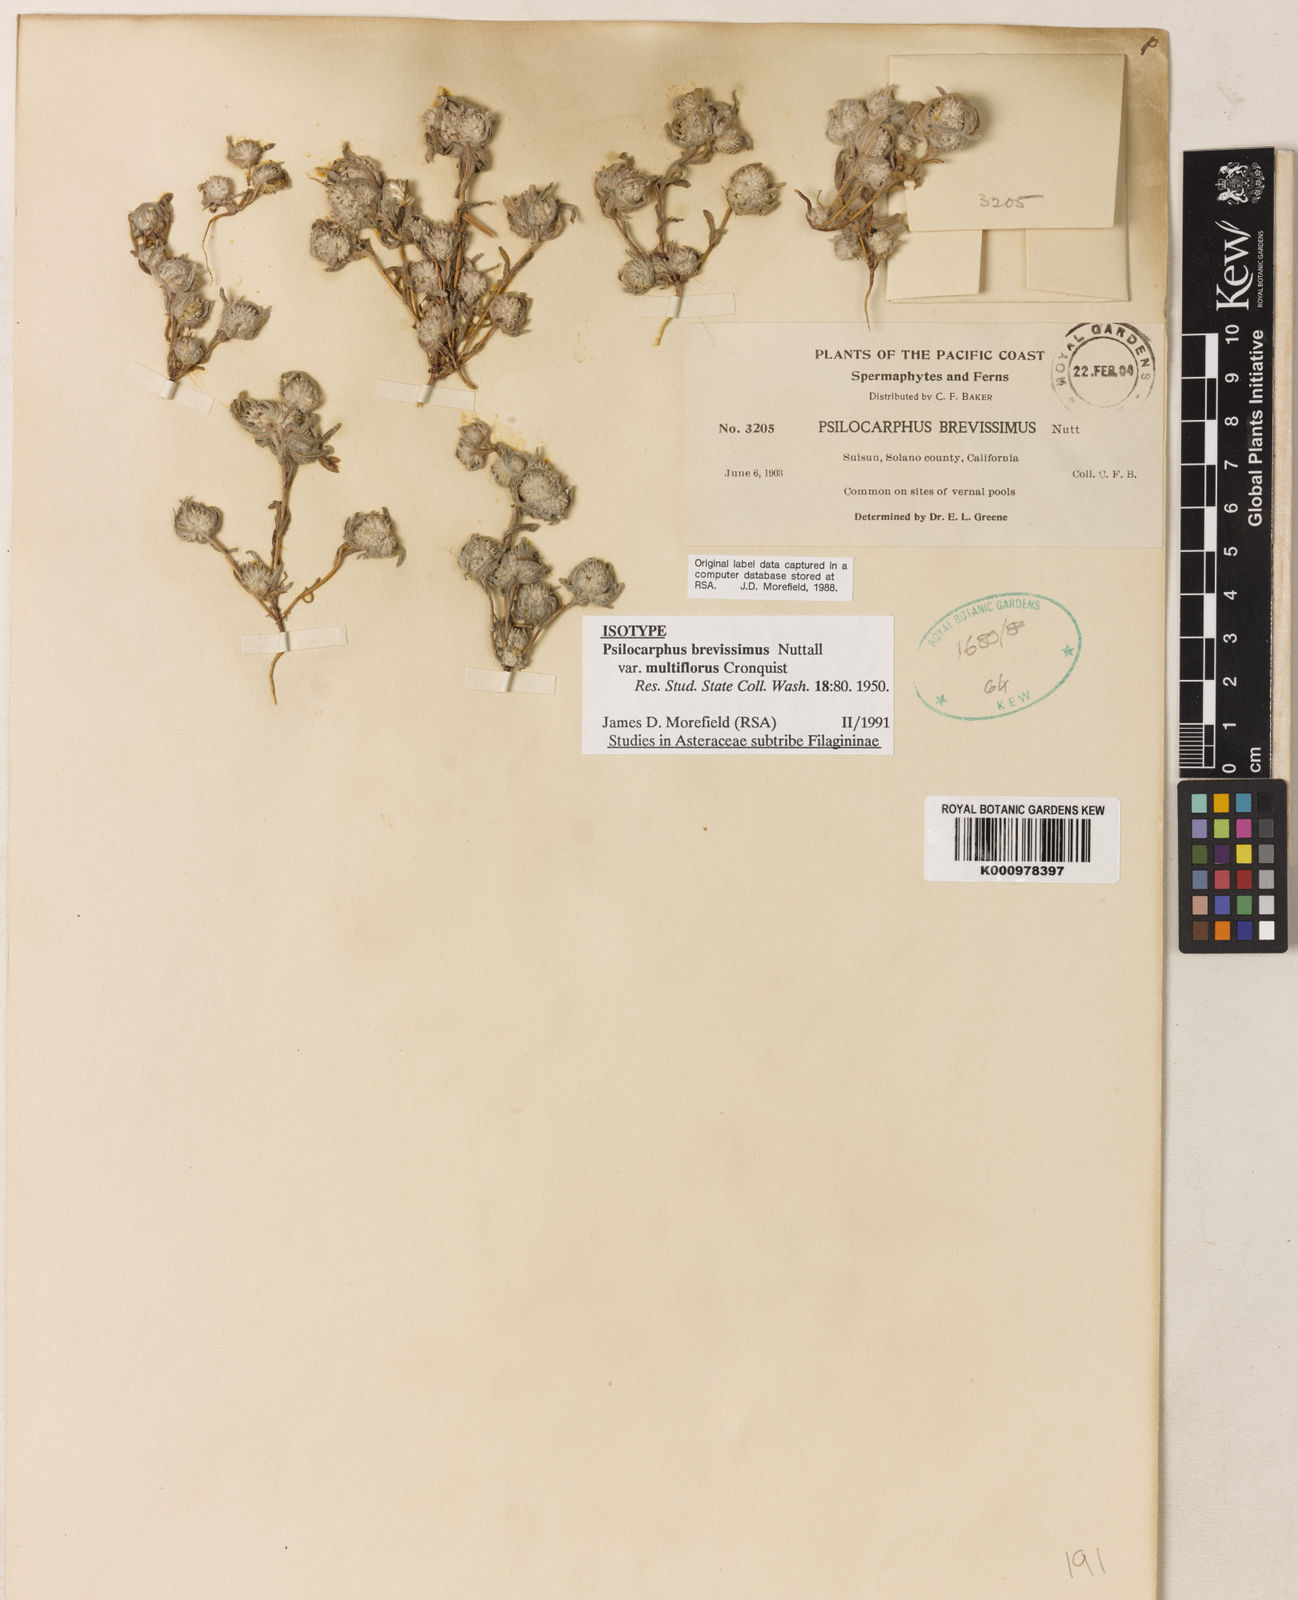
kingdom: Plantae
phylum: Tracheophyta
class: Magnoliopsida
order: Asterales
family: Asteraceae
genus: Psilocarphus
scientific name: Psilocarphus brevissimus
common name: Dwarf woollyheads
